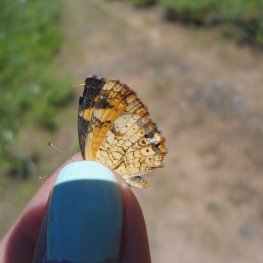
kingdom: Animalia
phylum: Arthropoda
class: Insecta
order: Lepidoptera
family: Nymphalidae
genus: Phyciodes
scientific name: Phyciodes tharos
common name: Northern Crescent
